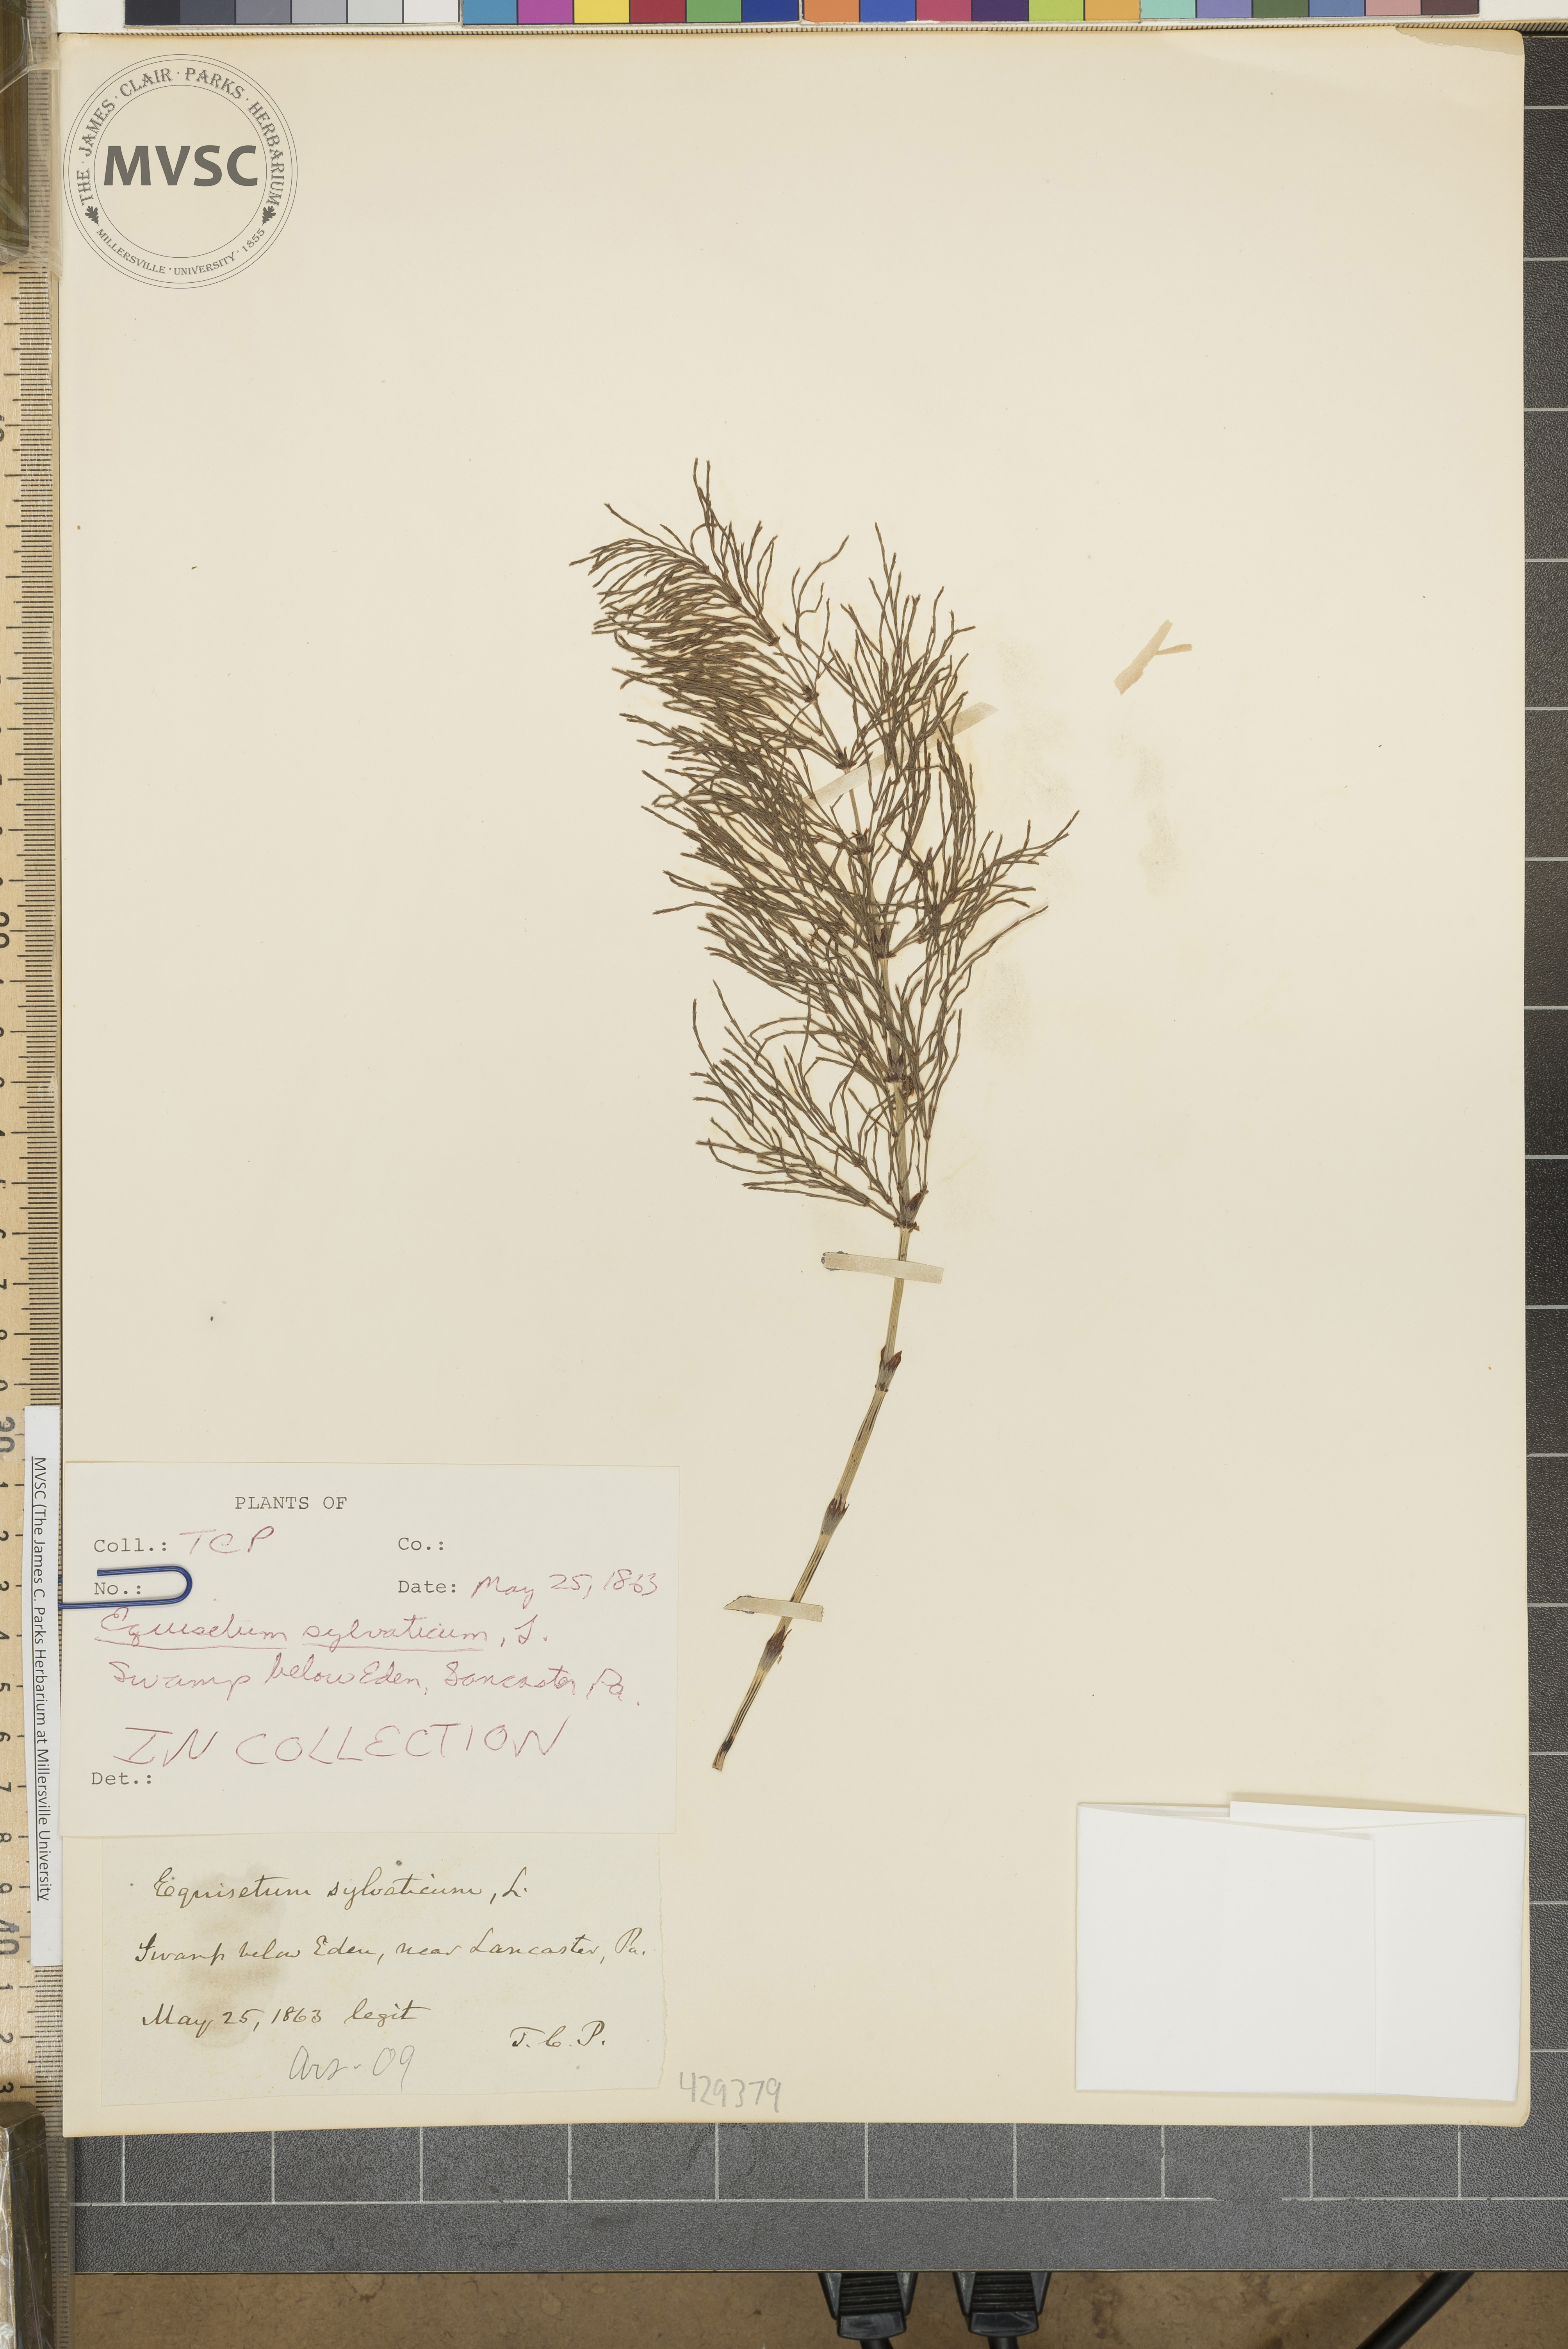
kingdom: Plantae
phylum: Tracheophyta
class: Polypodiopsida
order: Equisetales
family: Equisetaceae
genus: Equisetum
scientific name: Equisetum sylvaticum
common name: Wood horsetail
